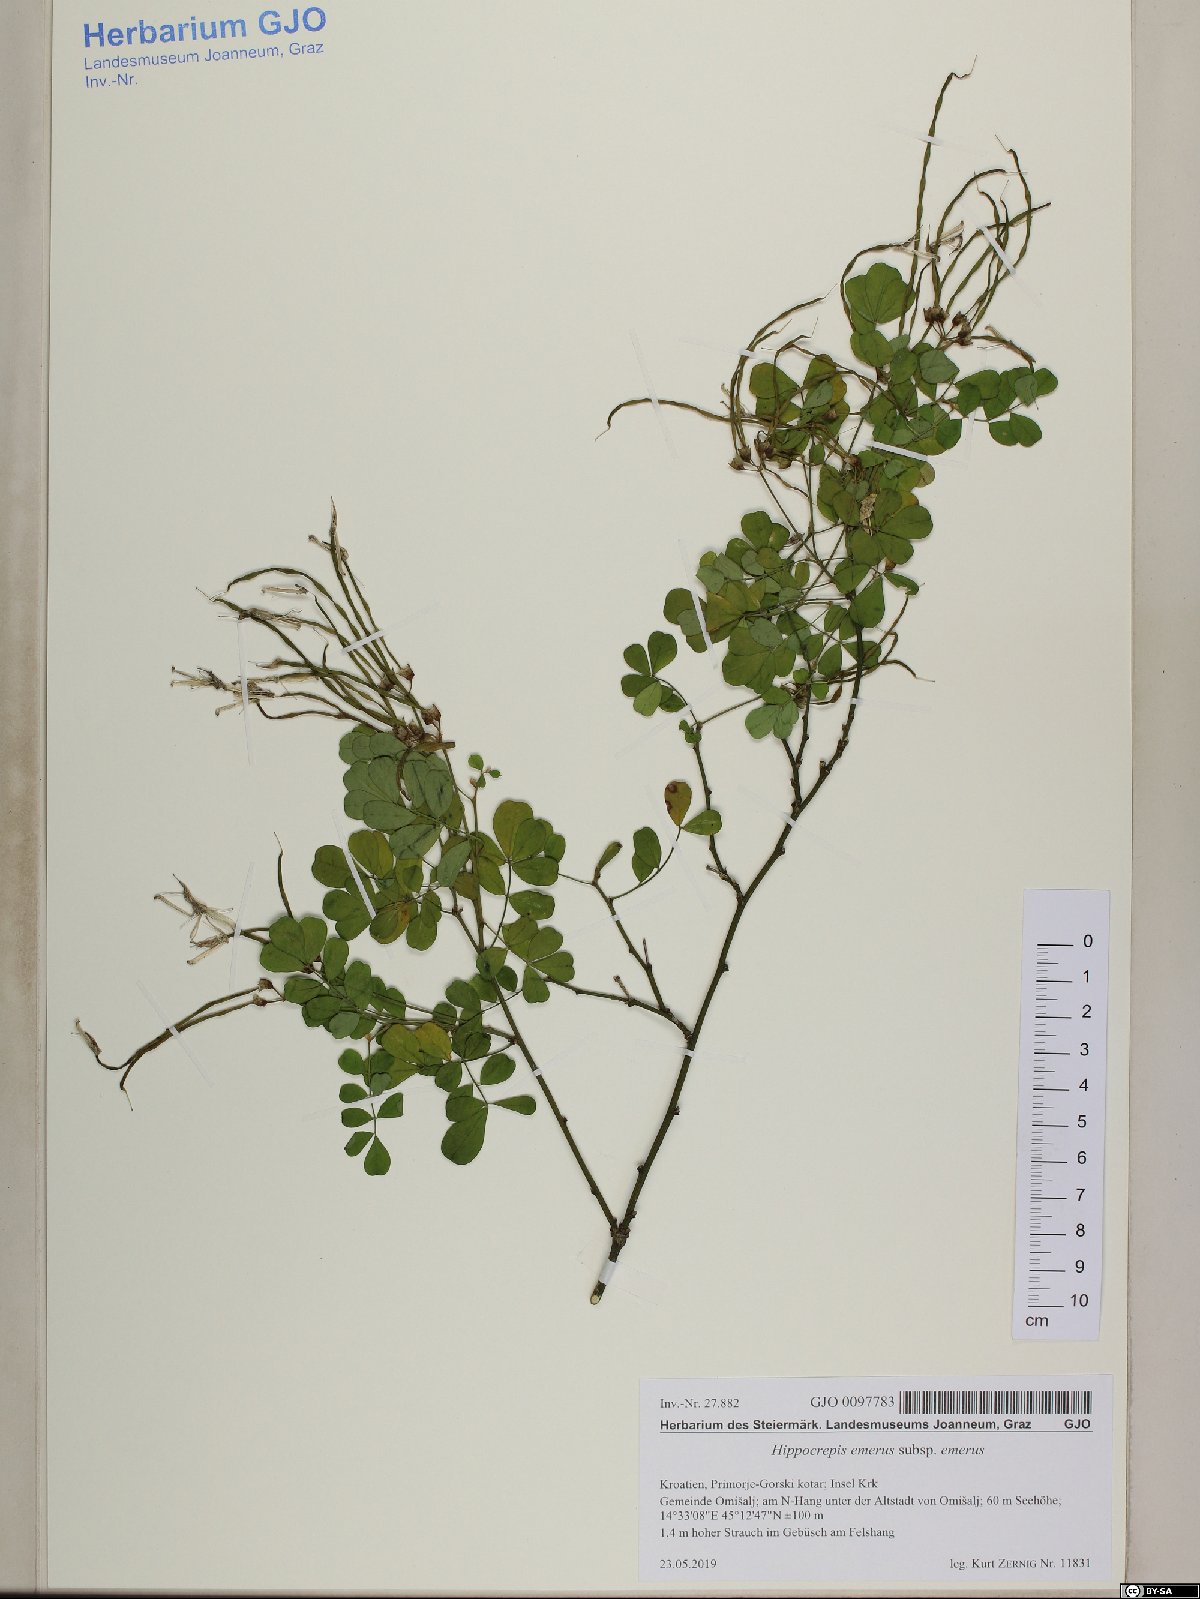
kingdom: Plantae
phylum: Tracheophyta
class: Magnoliopsida
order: Fabales
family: Fabaceae
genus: Hippocrepis
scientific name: Hippocrepis emerus
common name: Scorpion senna
